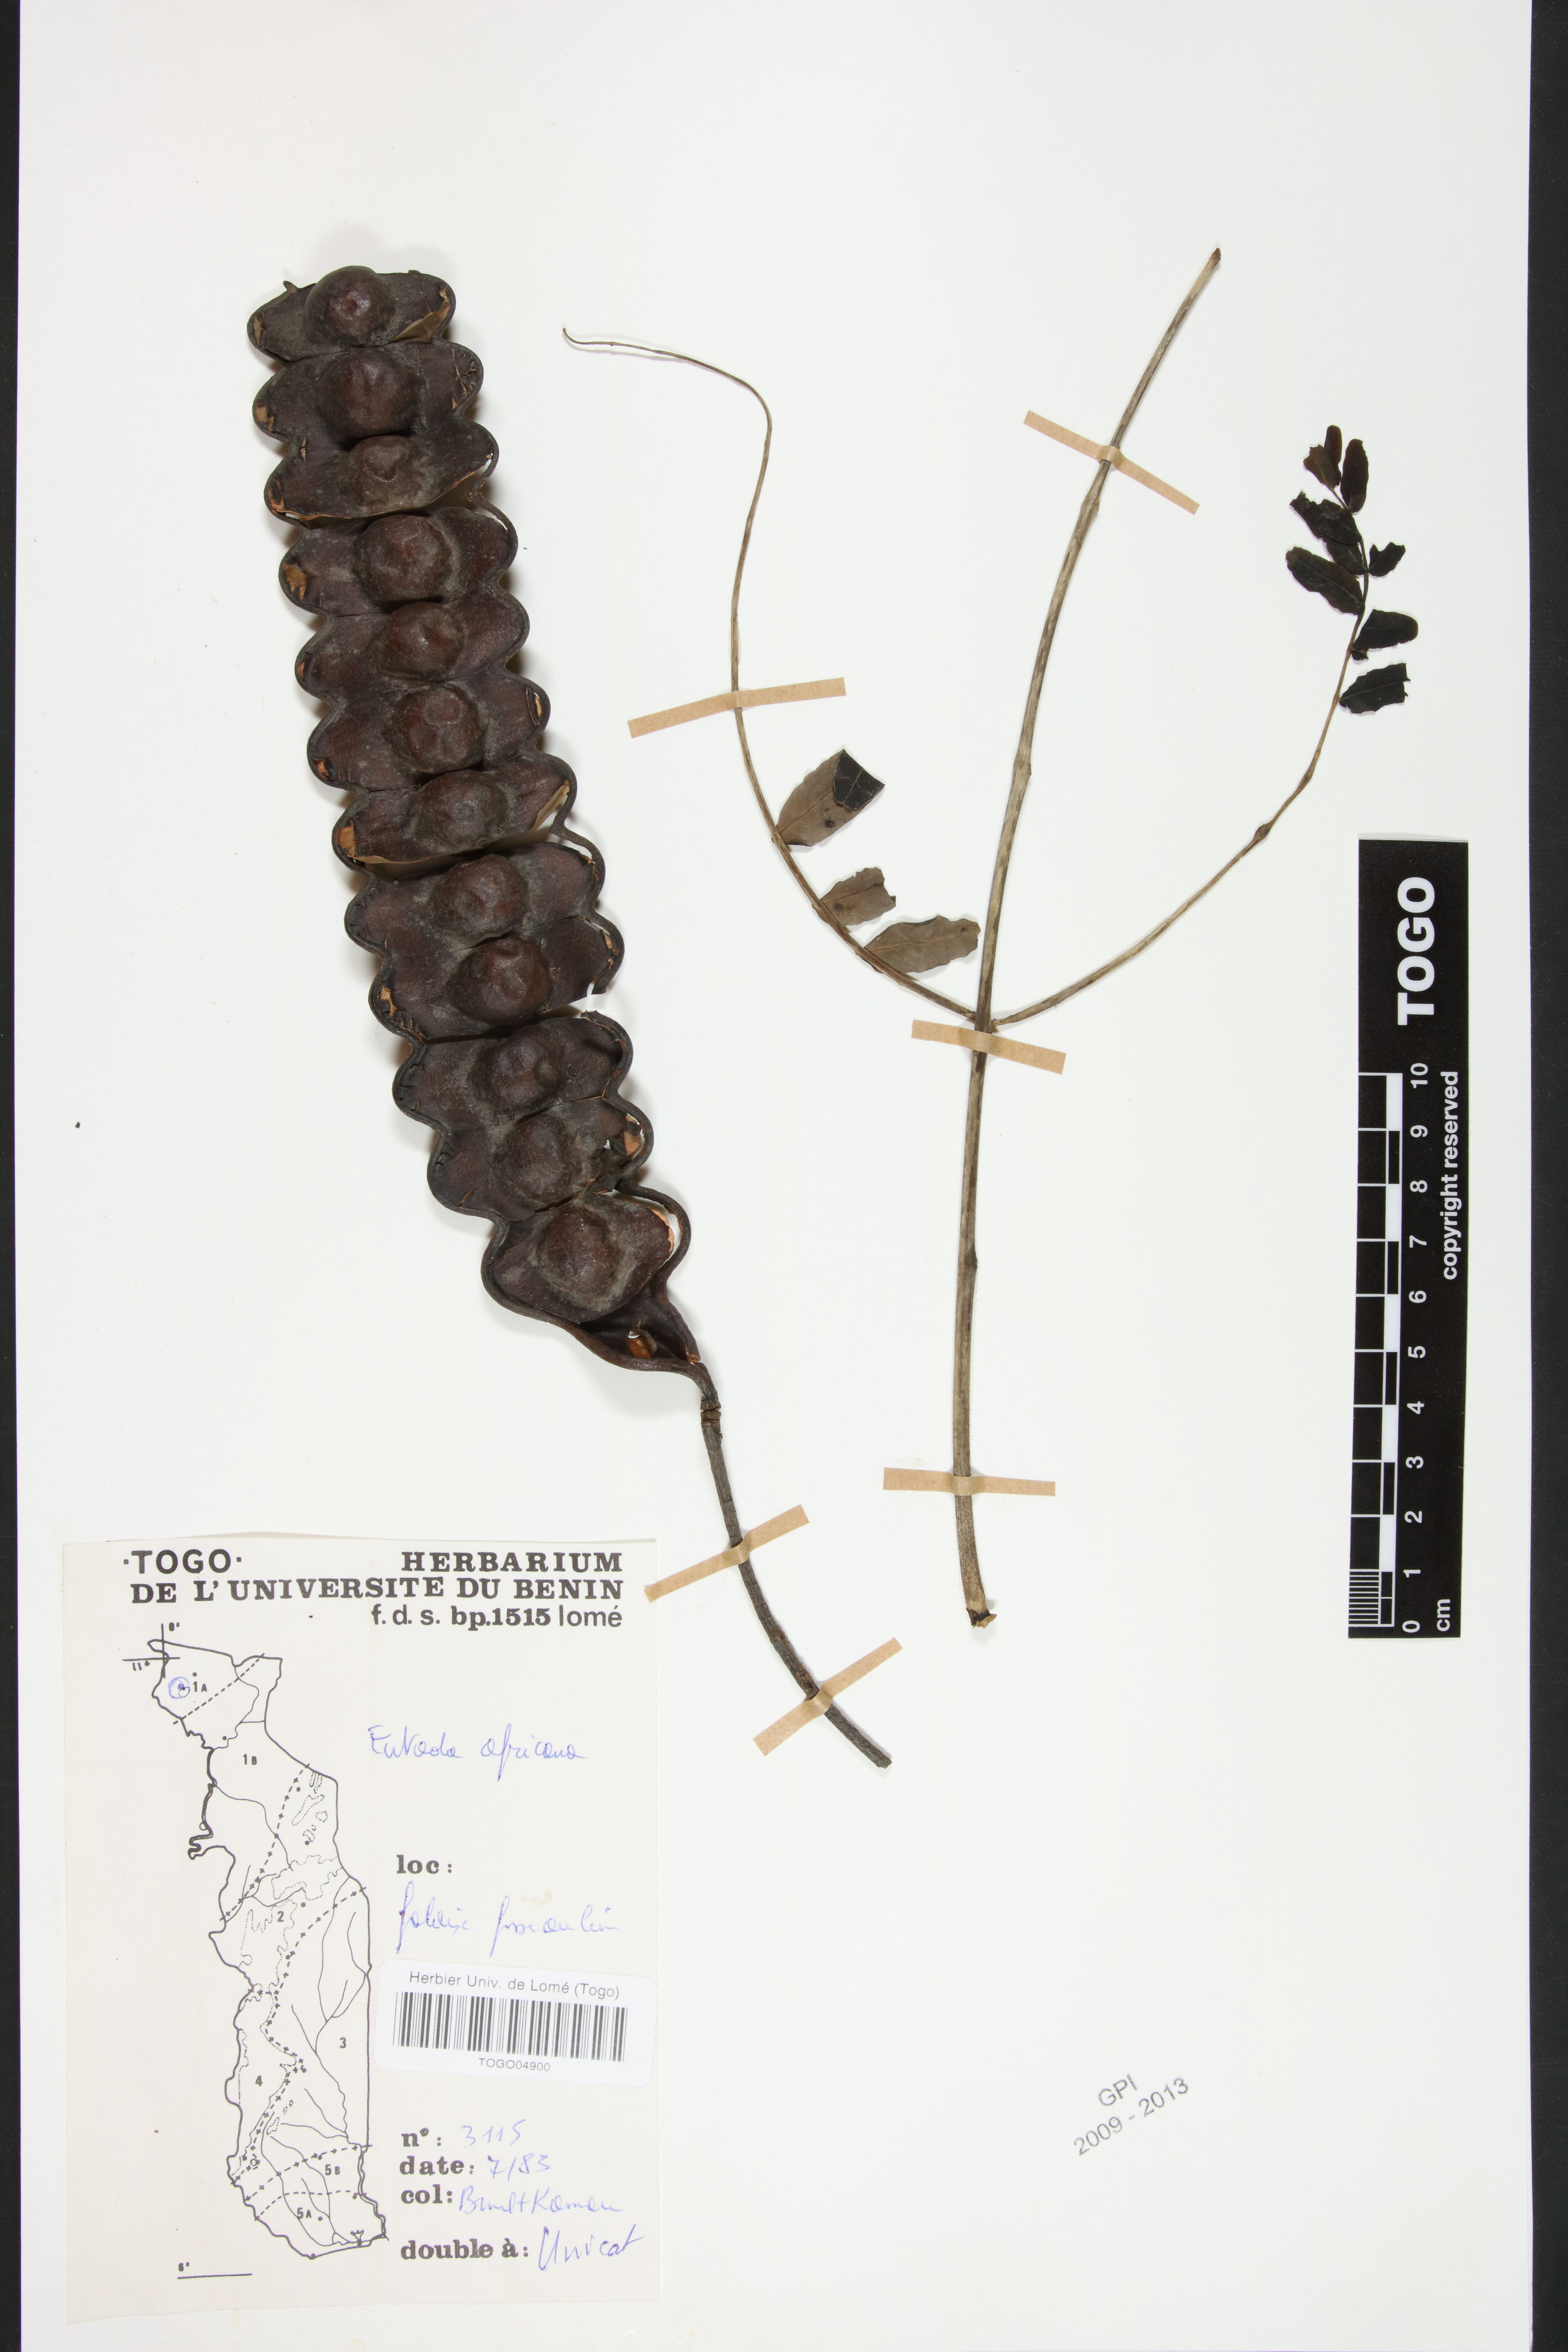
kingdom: Plantae
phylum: Tracheophyta
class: Magnoliopsida
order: Fabales
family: Fabaceae
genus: Entada
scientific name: Entada africana
